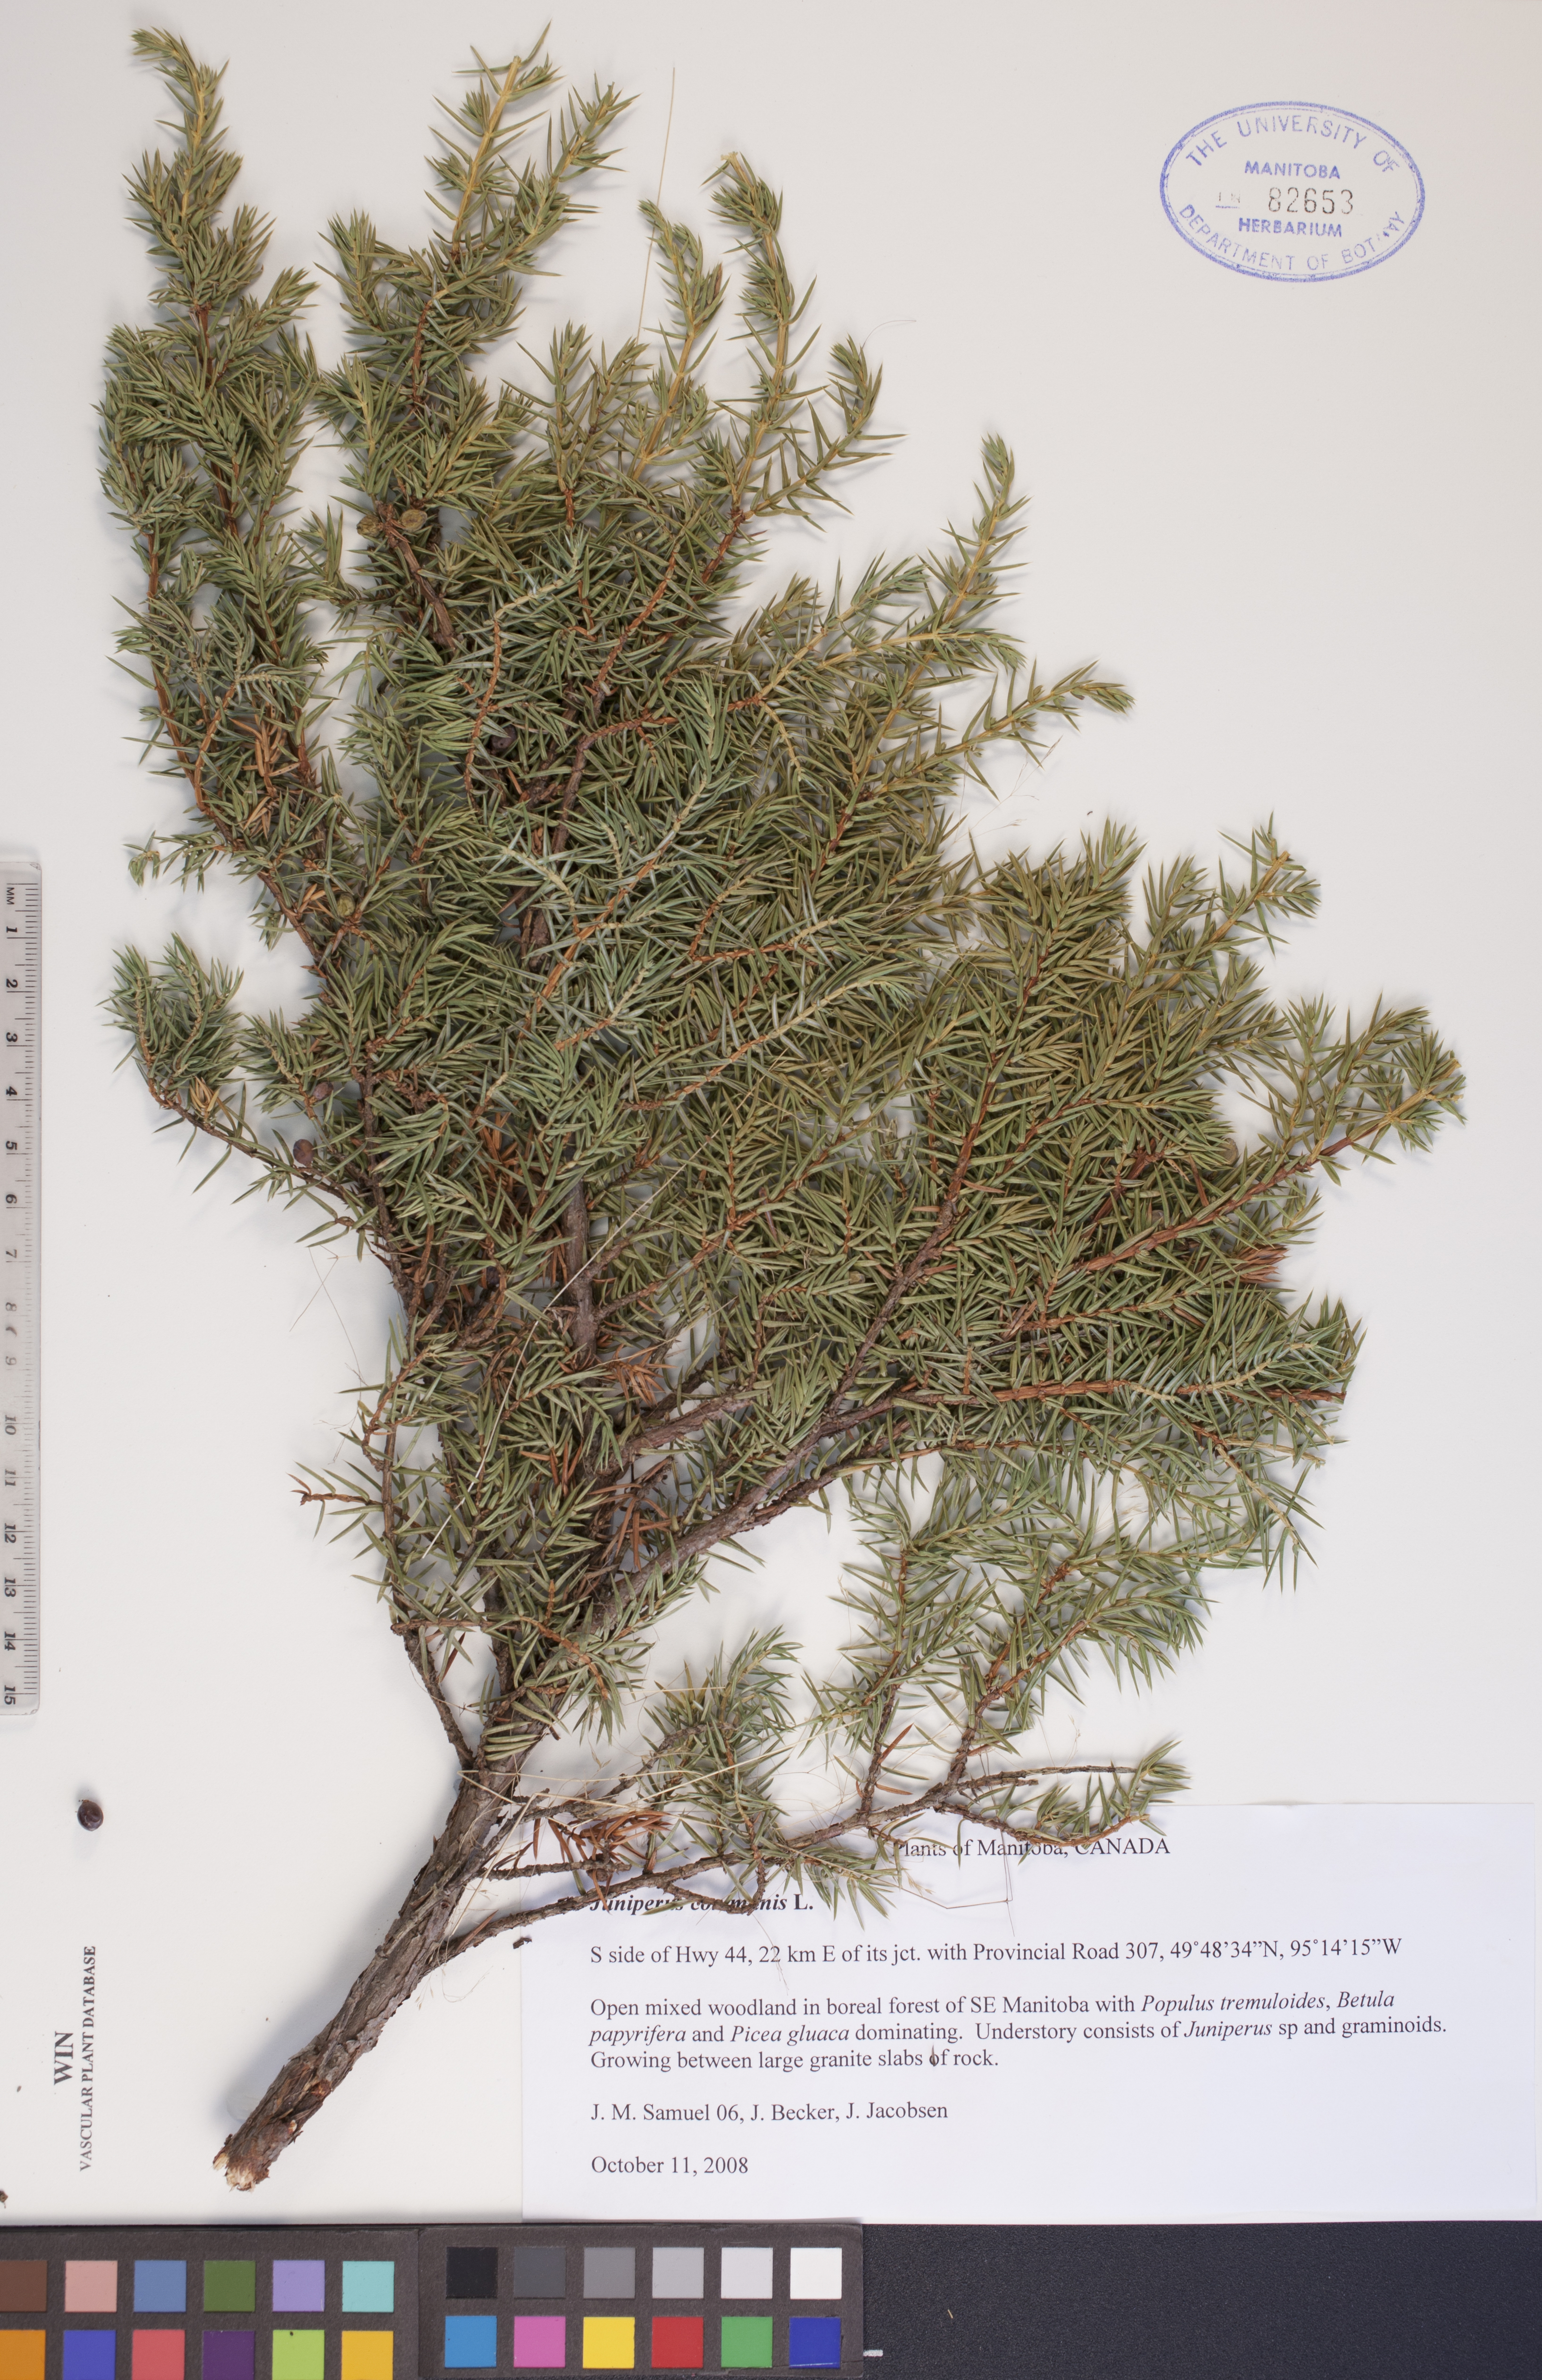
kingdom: Plantae
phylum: Tracheophyta
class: Pinopsida
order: Pinales
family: Cupressaceae
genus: Juniperus
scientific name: Juniperus communis
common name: Common juniper
